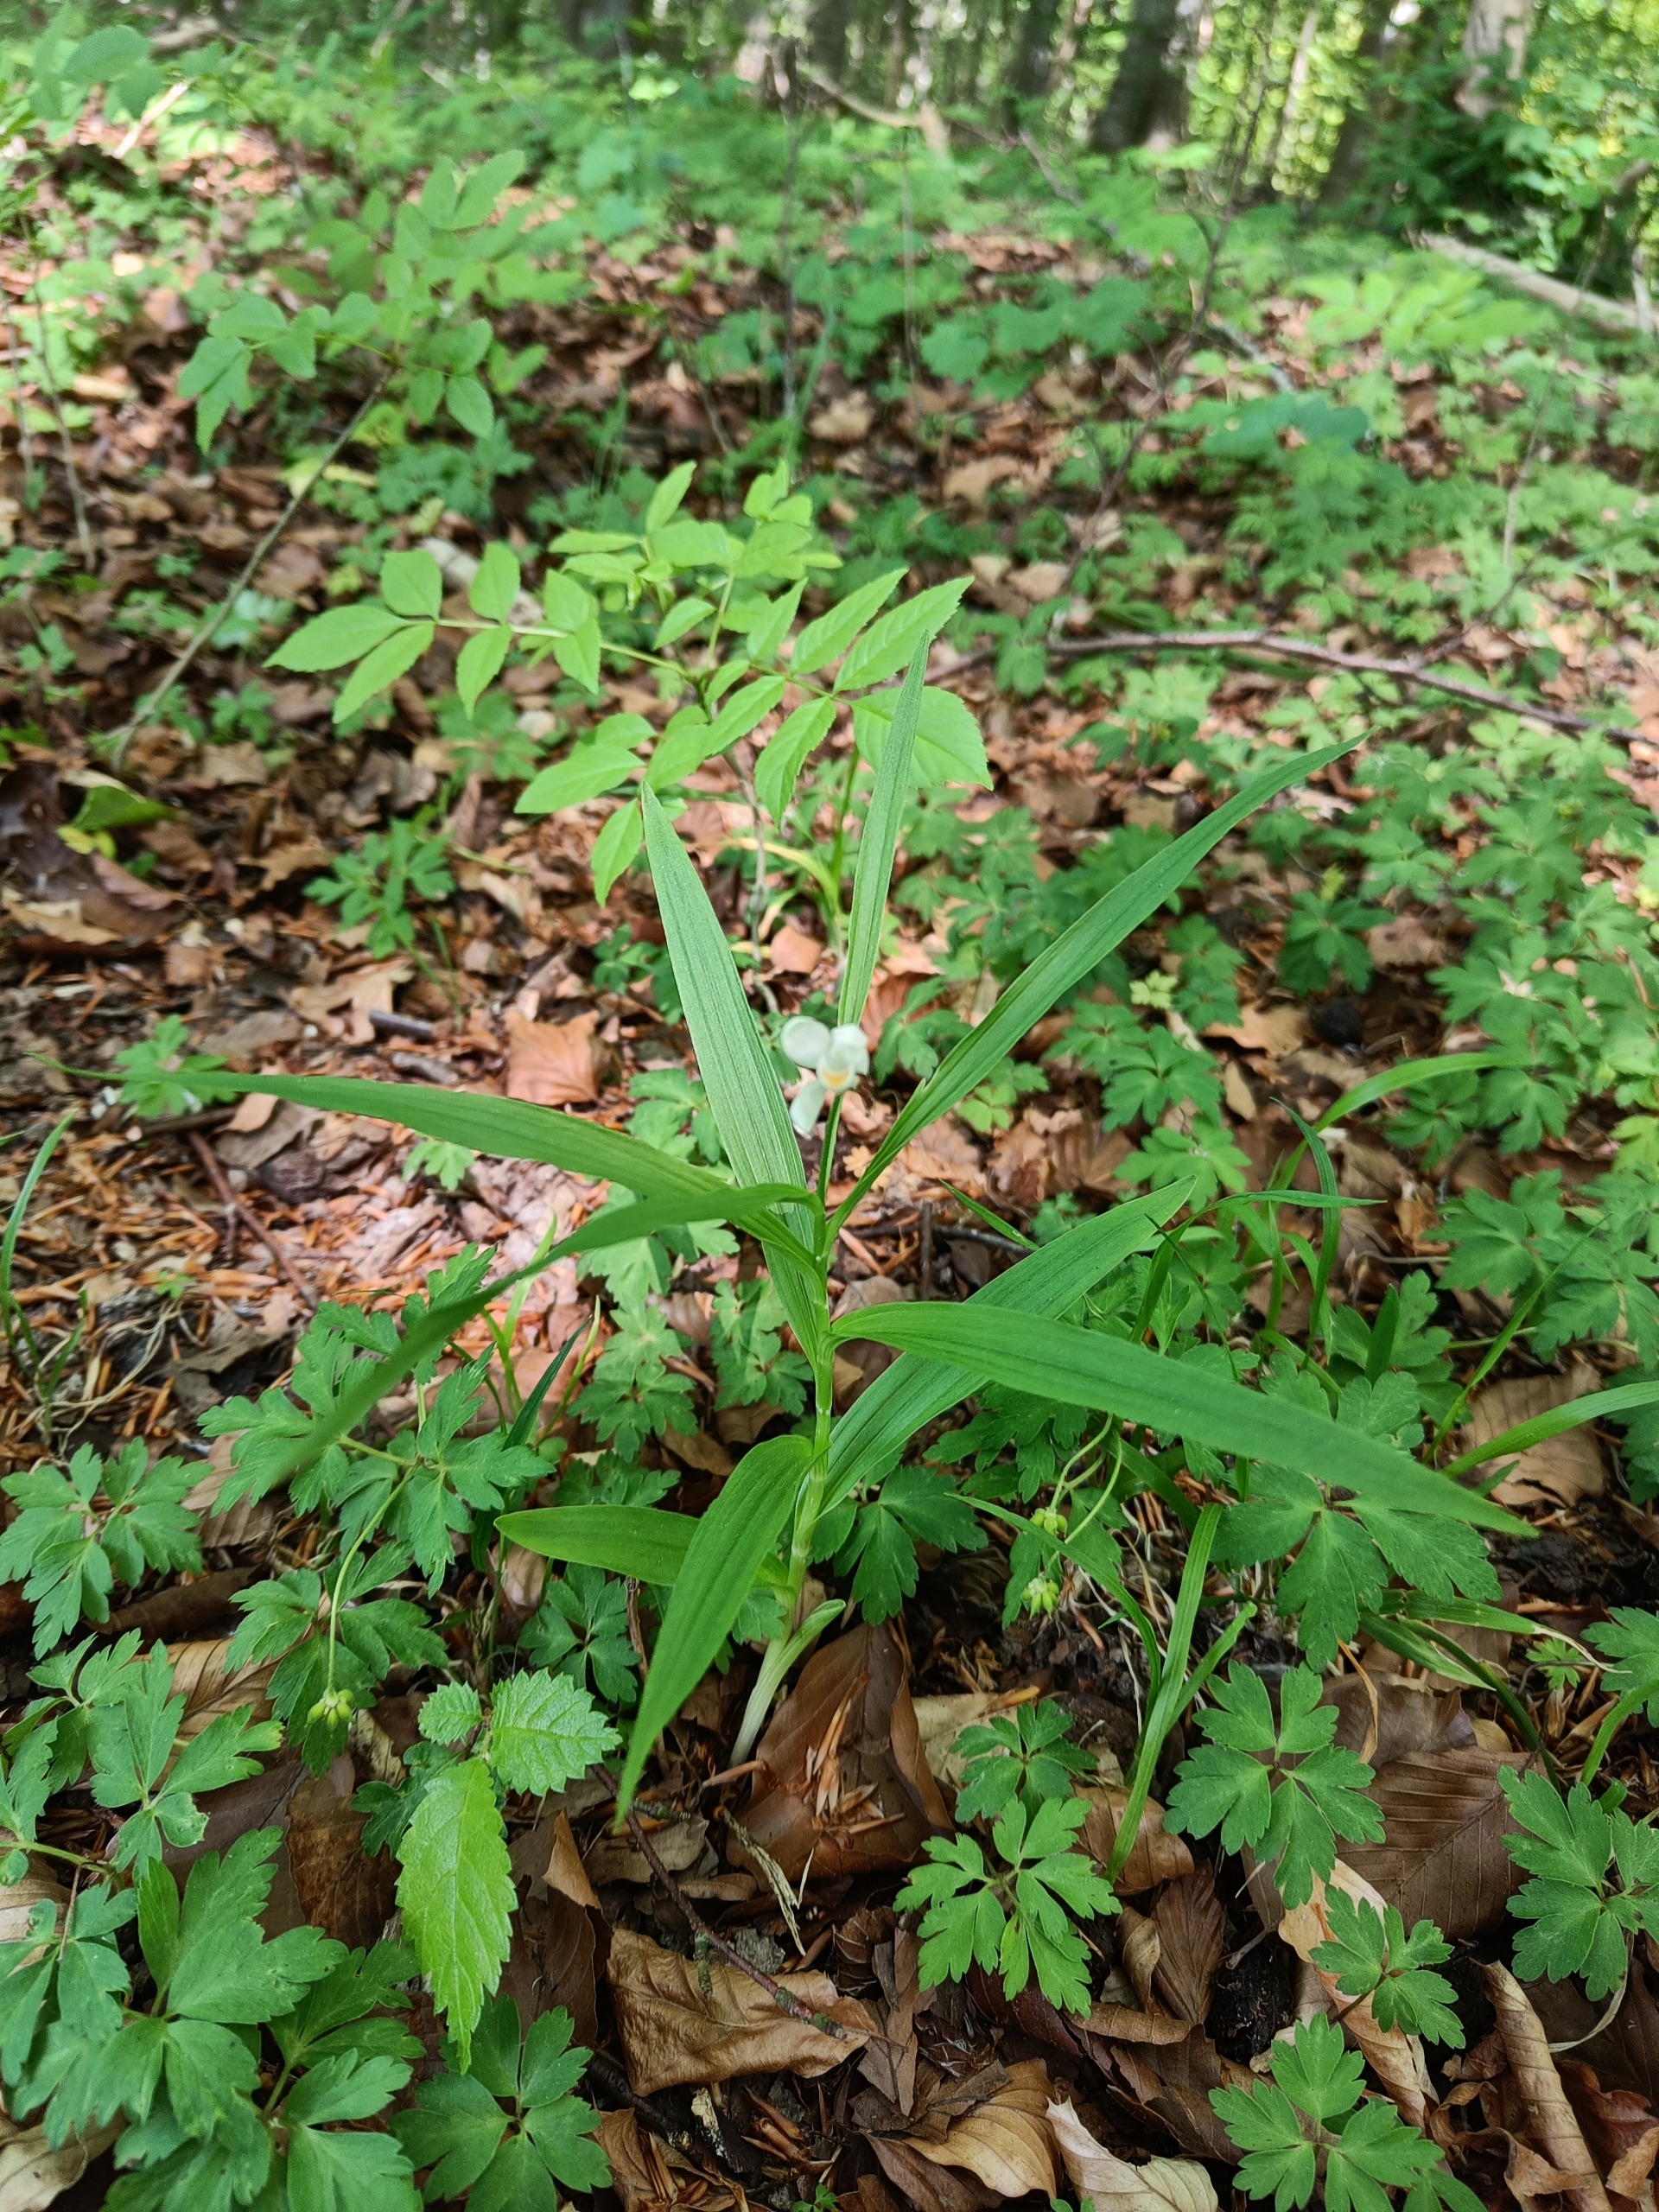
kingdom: Plantae
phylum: Tracheophyta
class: Liliopsida
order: Asparagales
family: Orchidaceae
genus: Cephalanthera
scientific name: Cephalanthera longifolia
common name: Sværd-skovlilje
